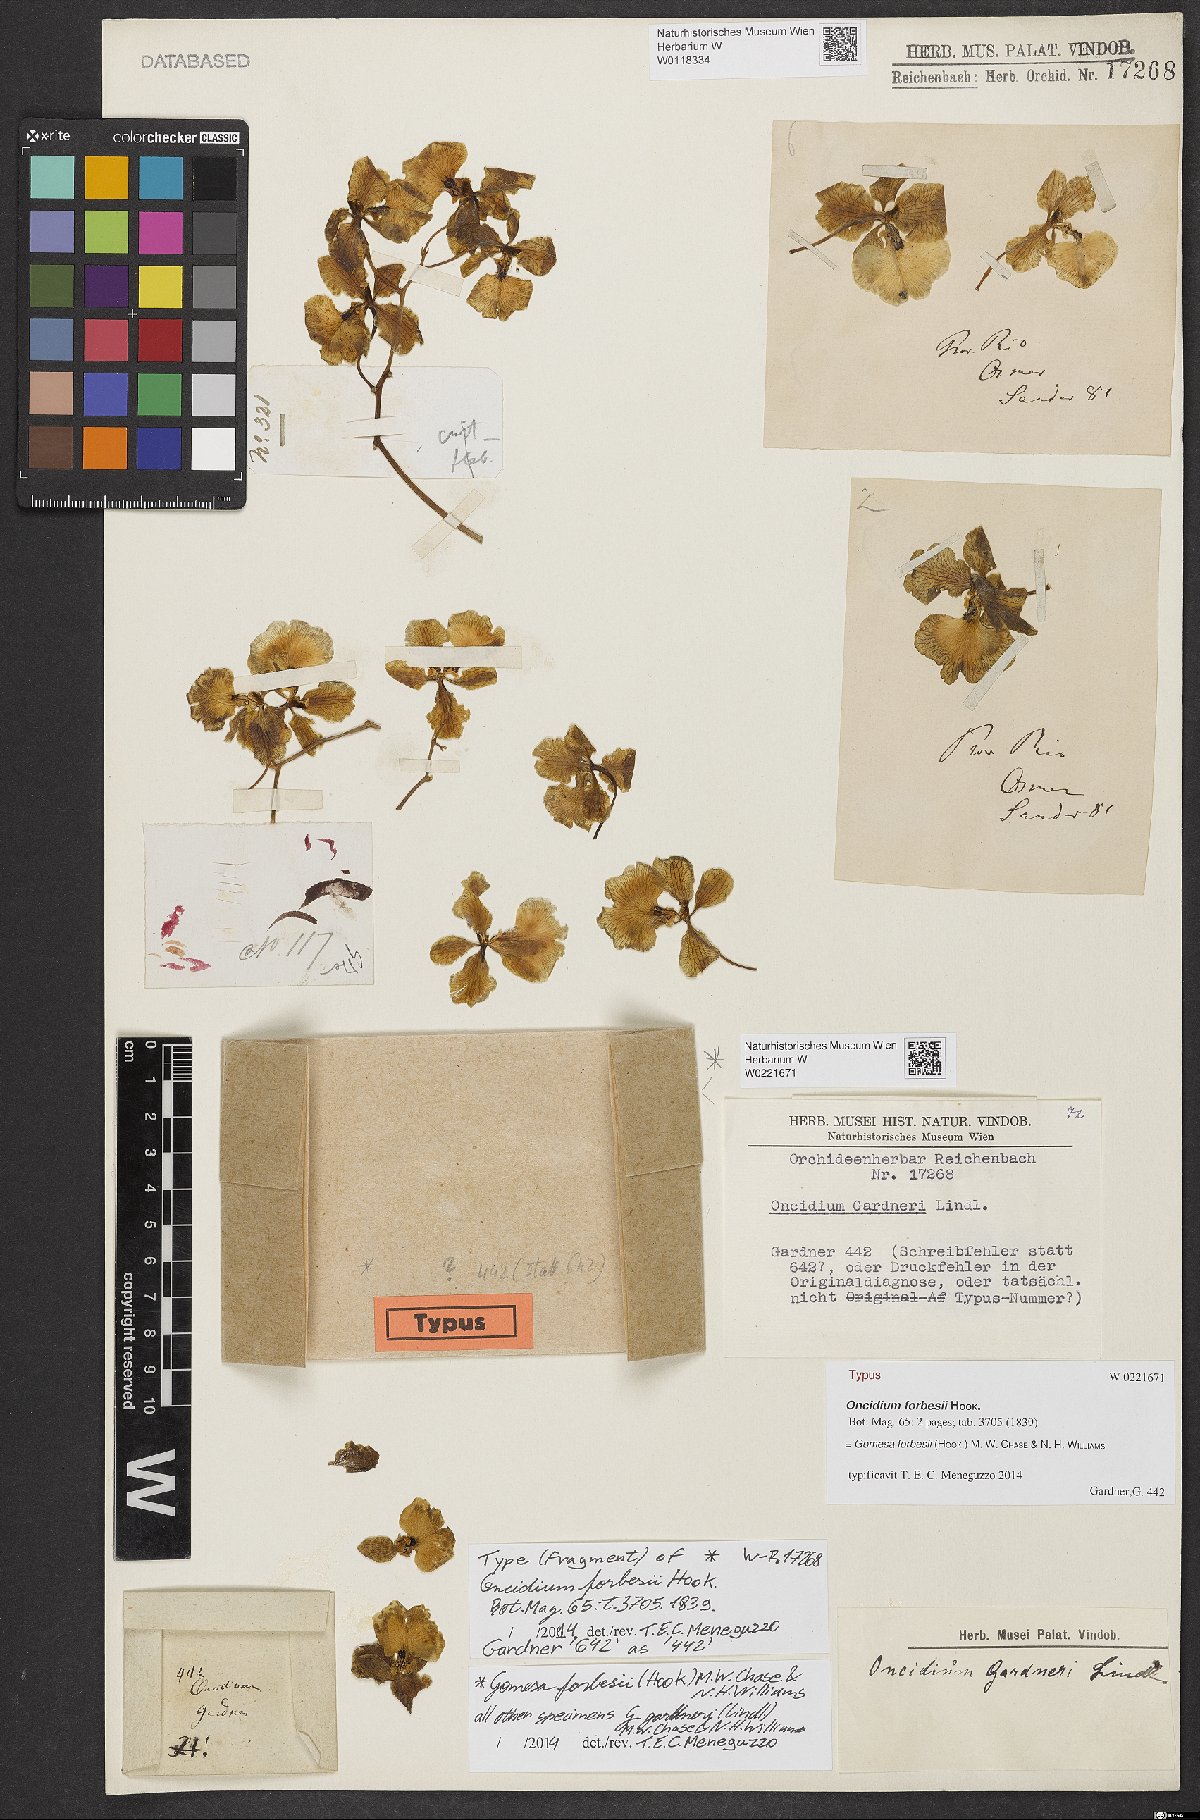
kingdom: Plantae
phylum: Tracheophyta
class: Liliopsida
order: Asparagales
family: Orchidaceae
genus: Gomesa
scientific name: Gomesa forbesii
